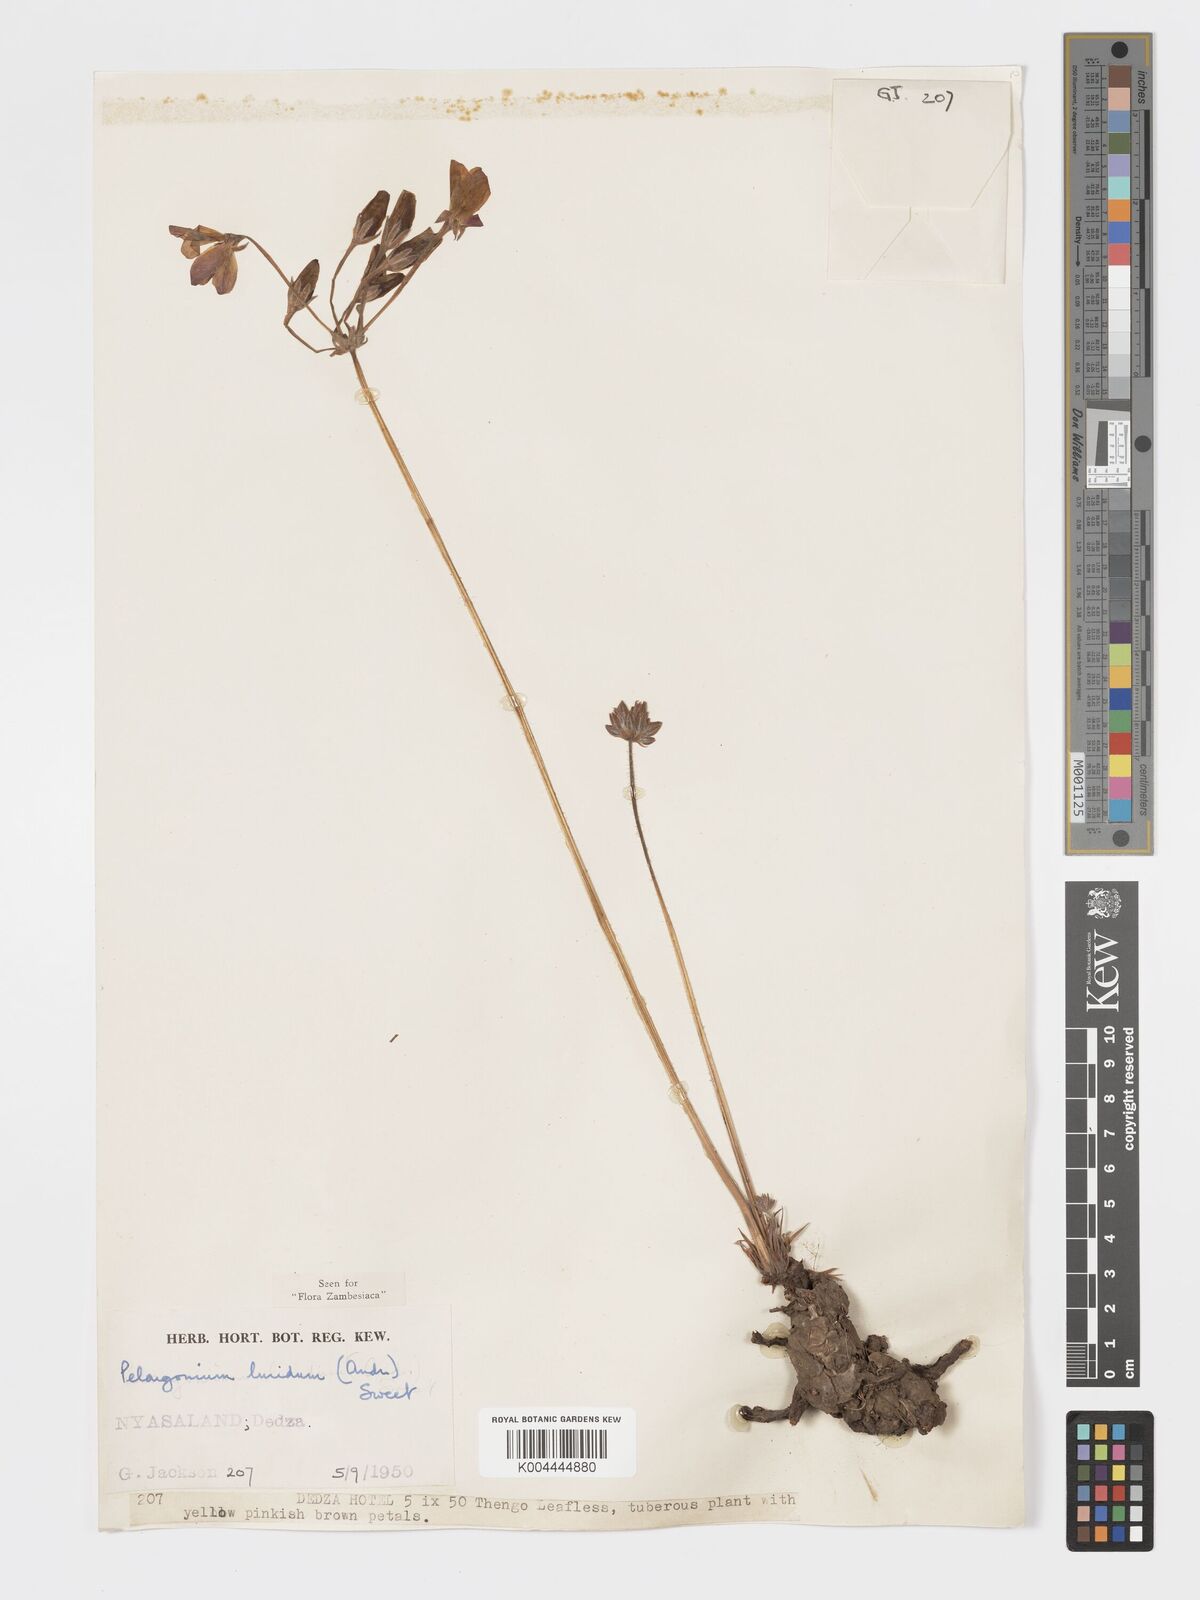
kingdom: Plantae
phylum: Tracheophyta
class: Magnoliopsida
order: Geraniales
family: Geraniaceae
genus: Pelargonium
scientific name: Pelargonium luridum
